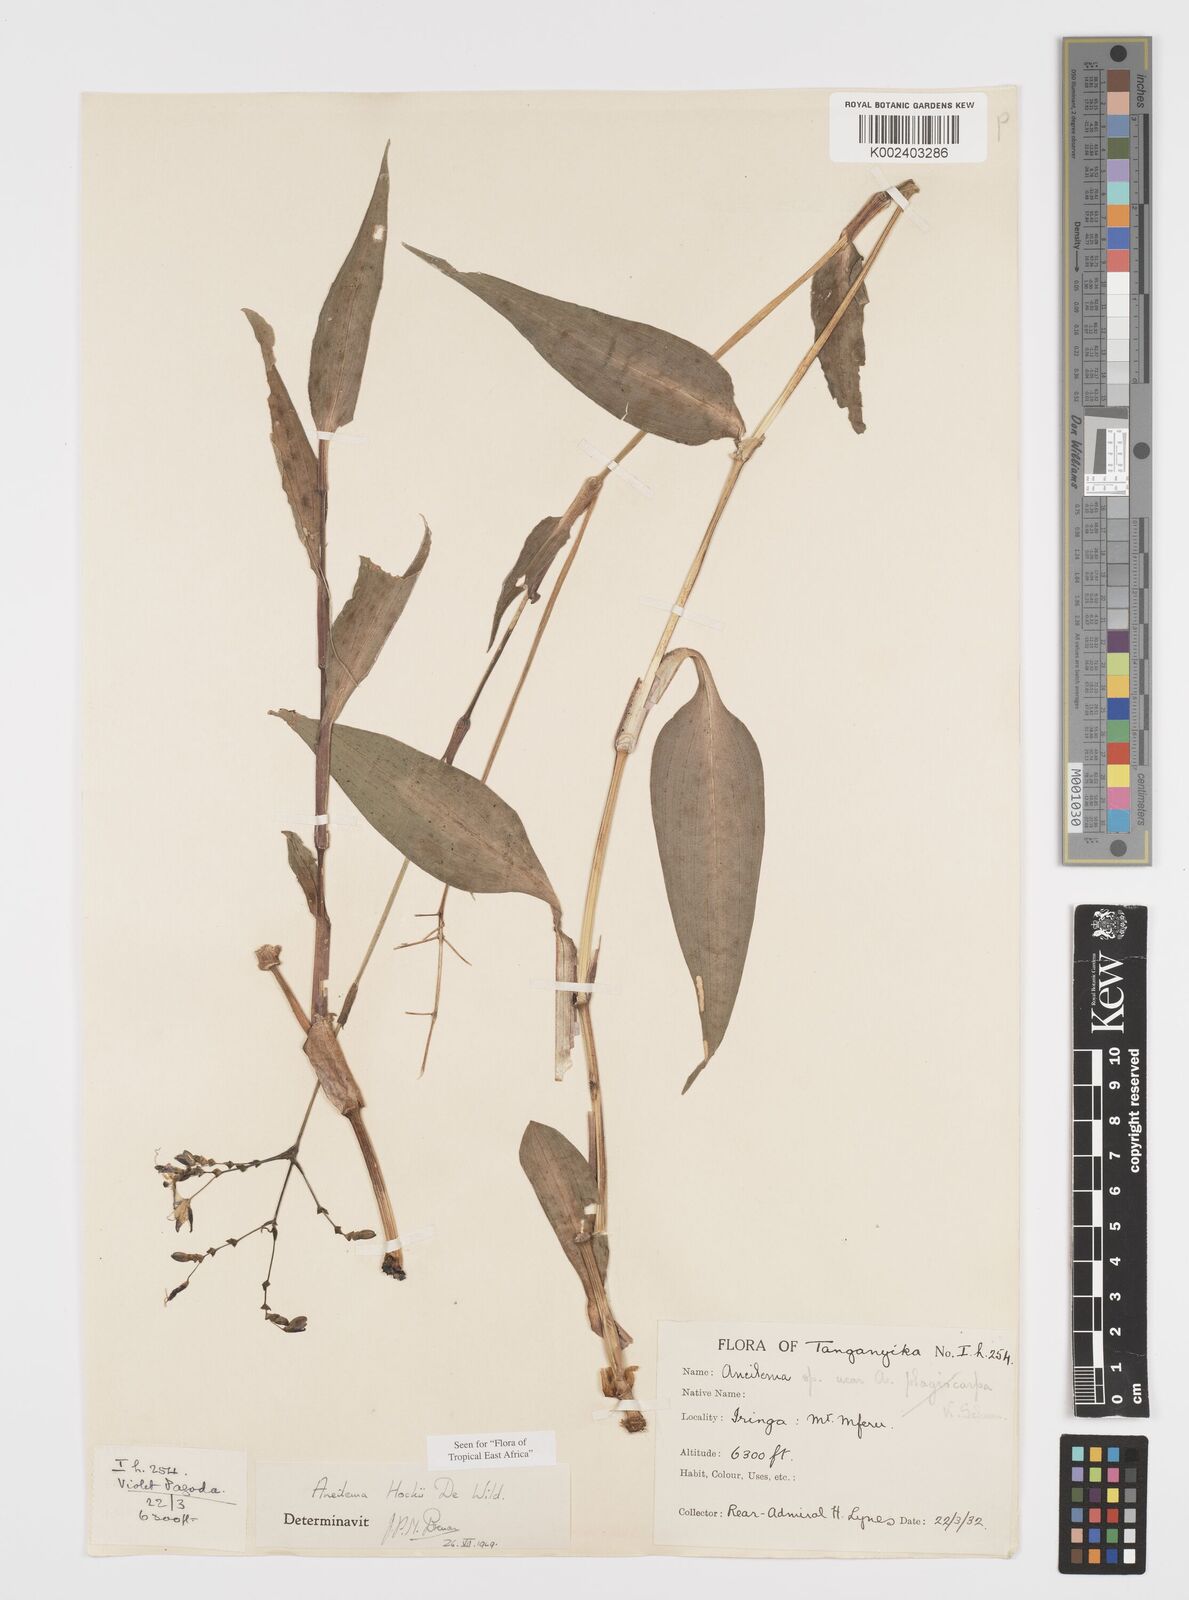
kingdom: Plantae
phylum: Tracheophyta
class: Liliopsida
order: Commelinales
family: Commelinaceae
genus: Aneilema
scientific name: Aneilema hockii
